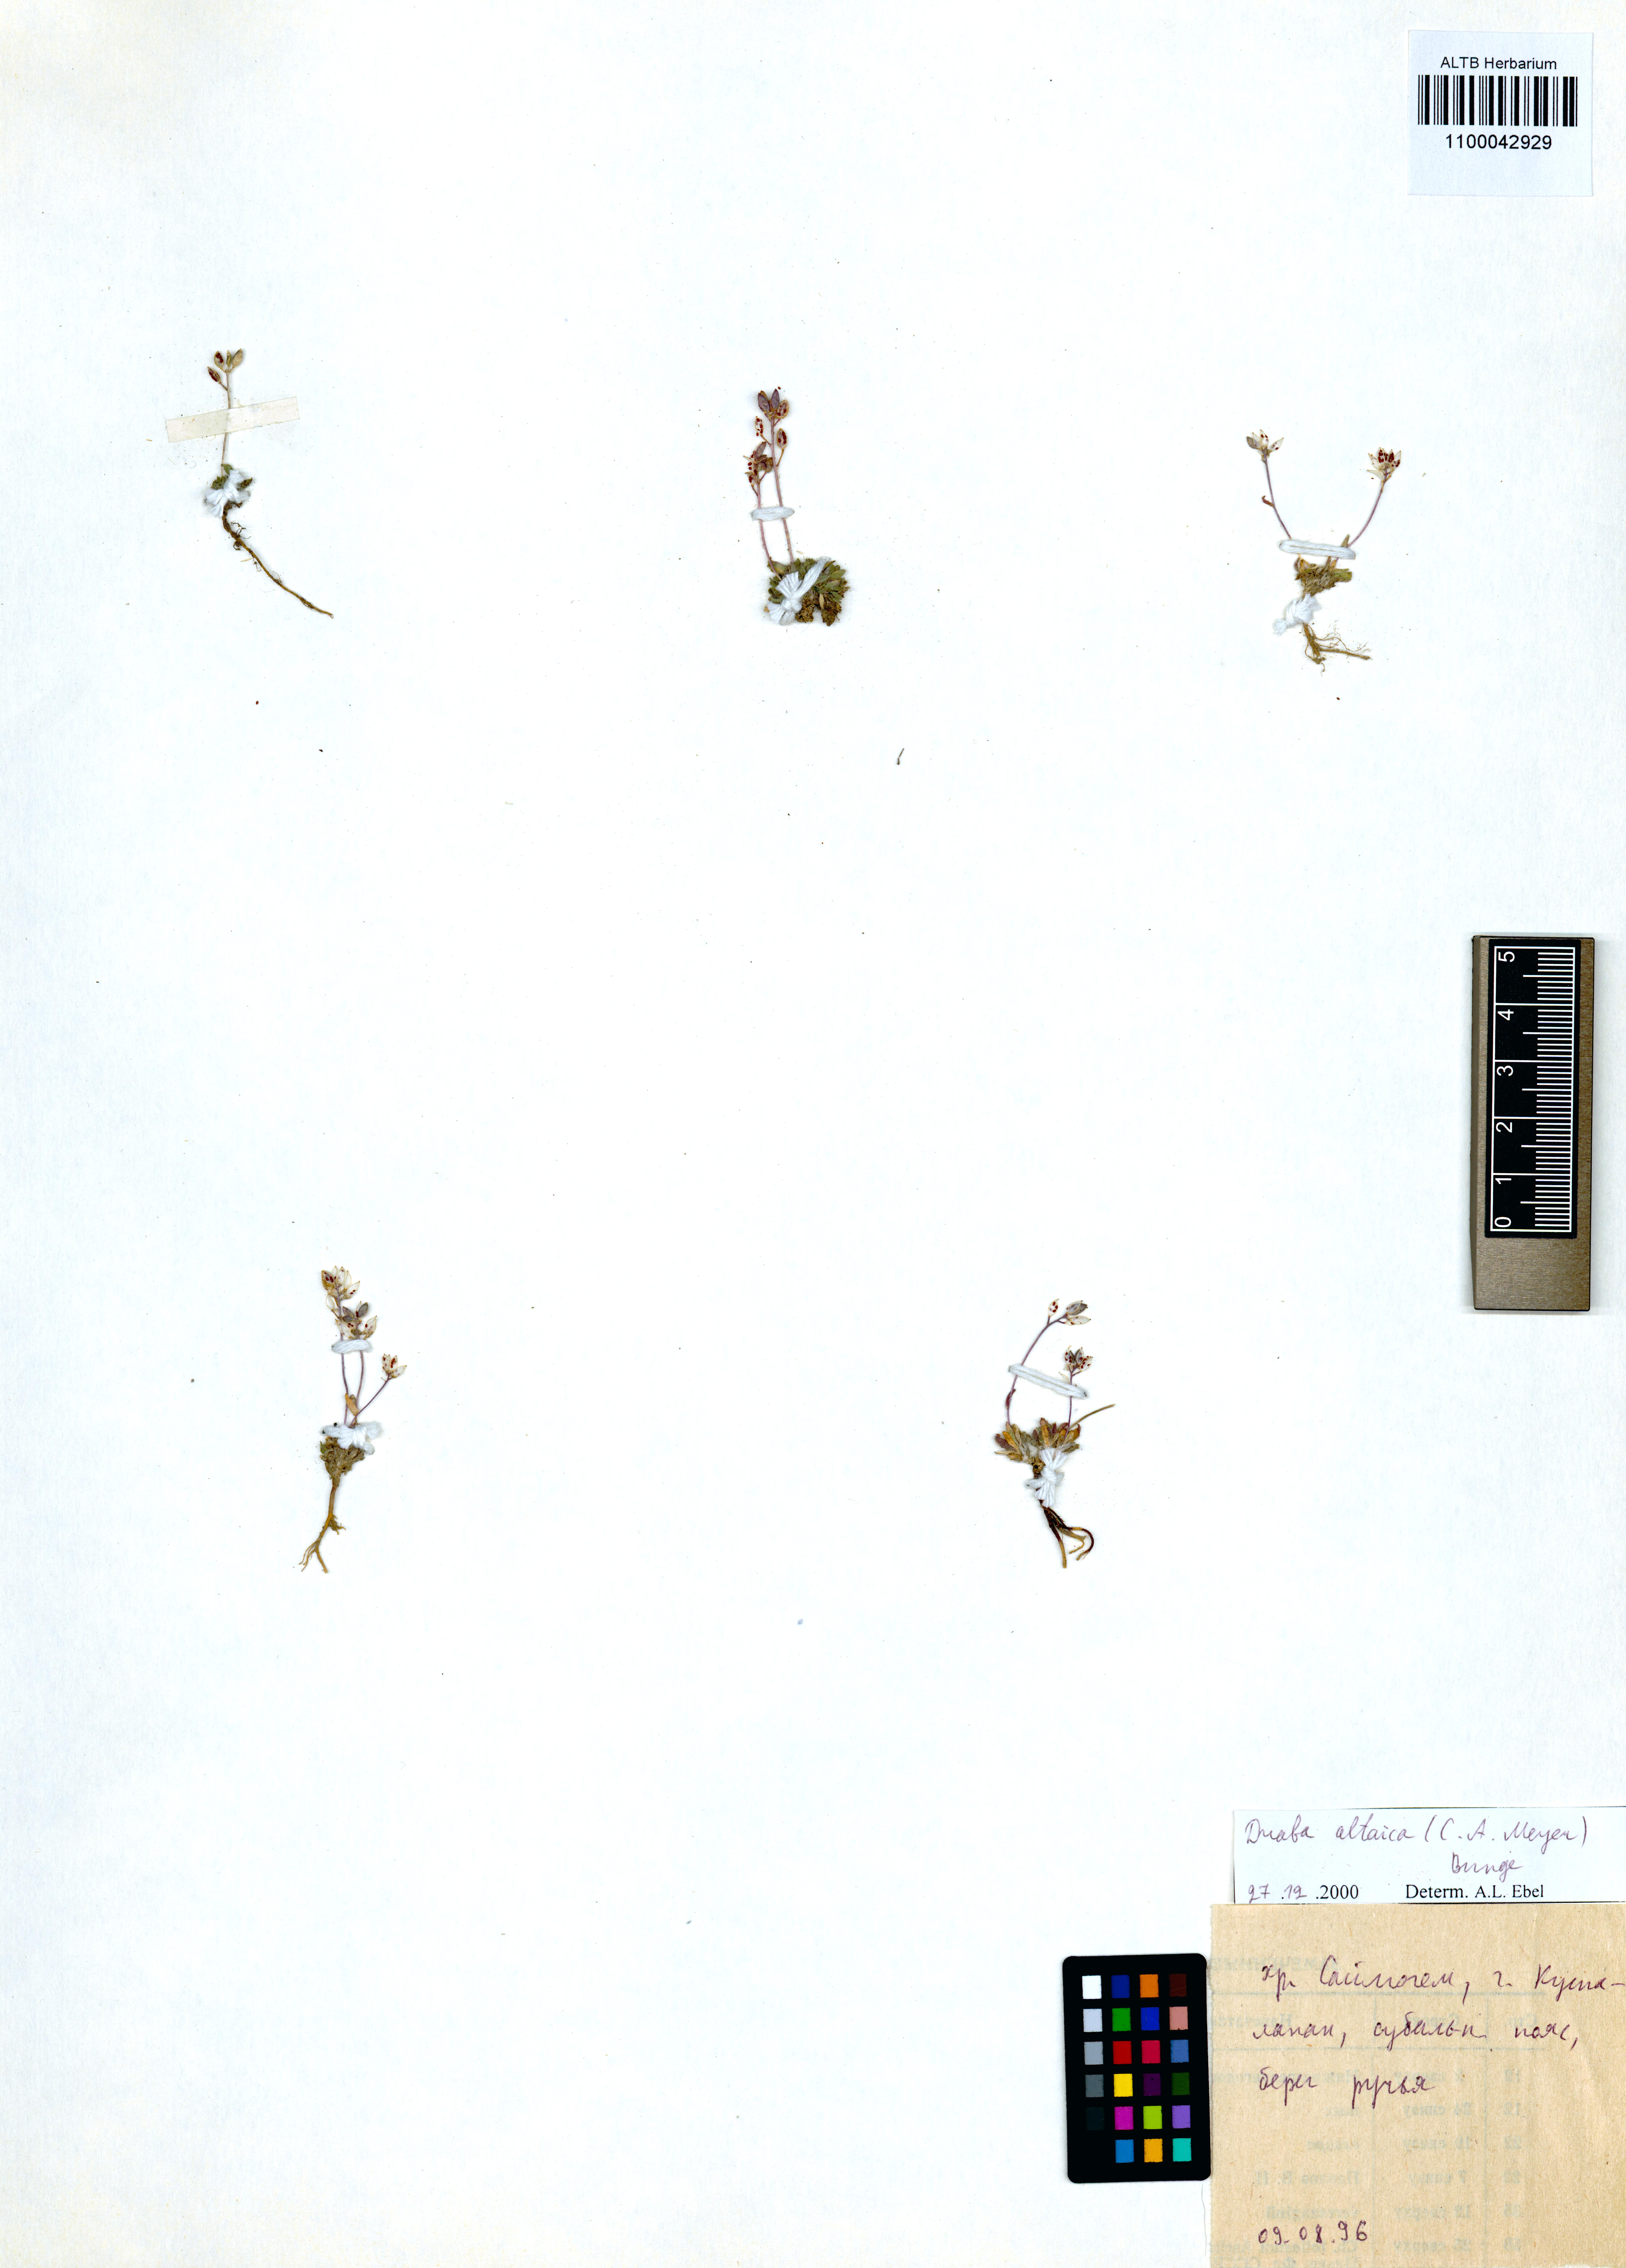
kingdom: Plantae
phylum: Tracheophyta
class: Magnoliopsida
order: Brassicales
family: Brassicaceae
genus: Draba
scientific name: Draba altaica
